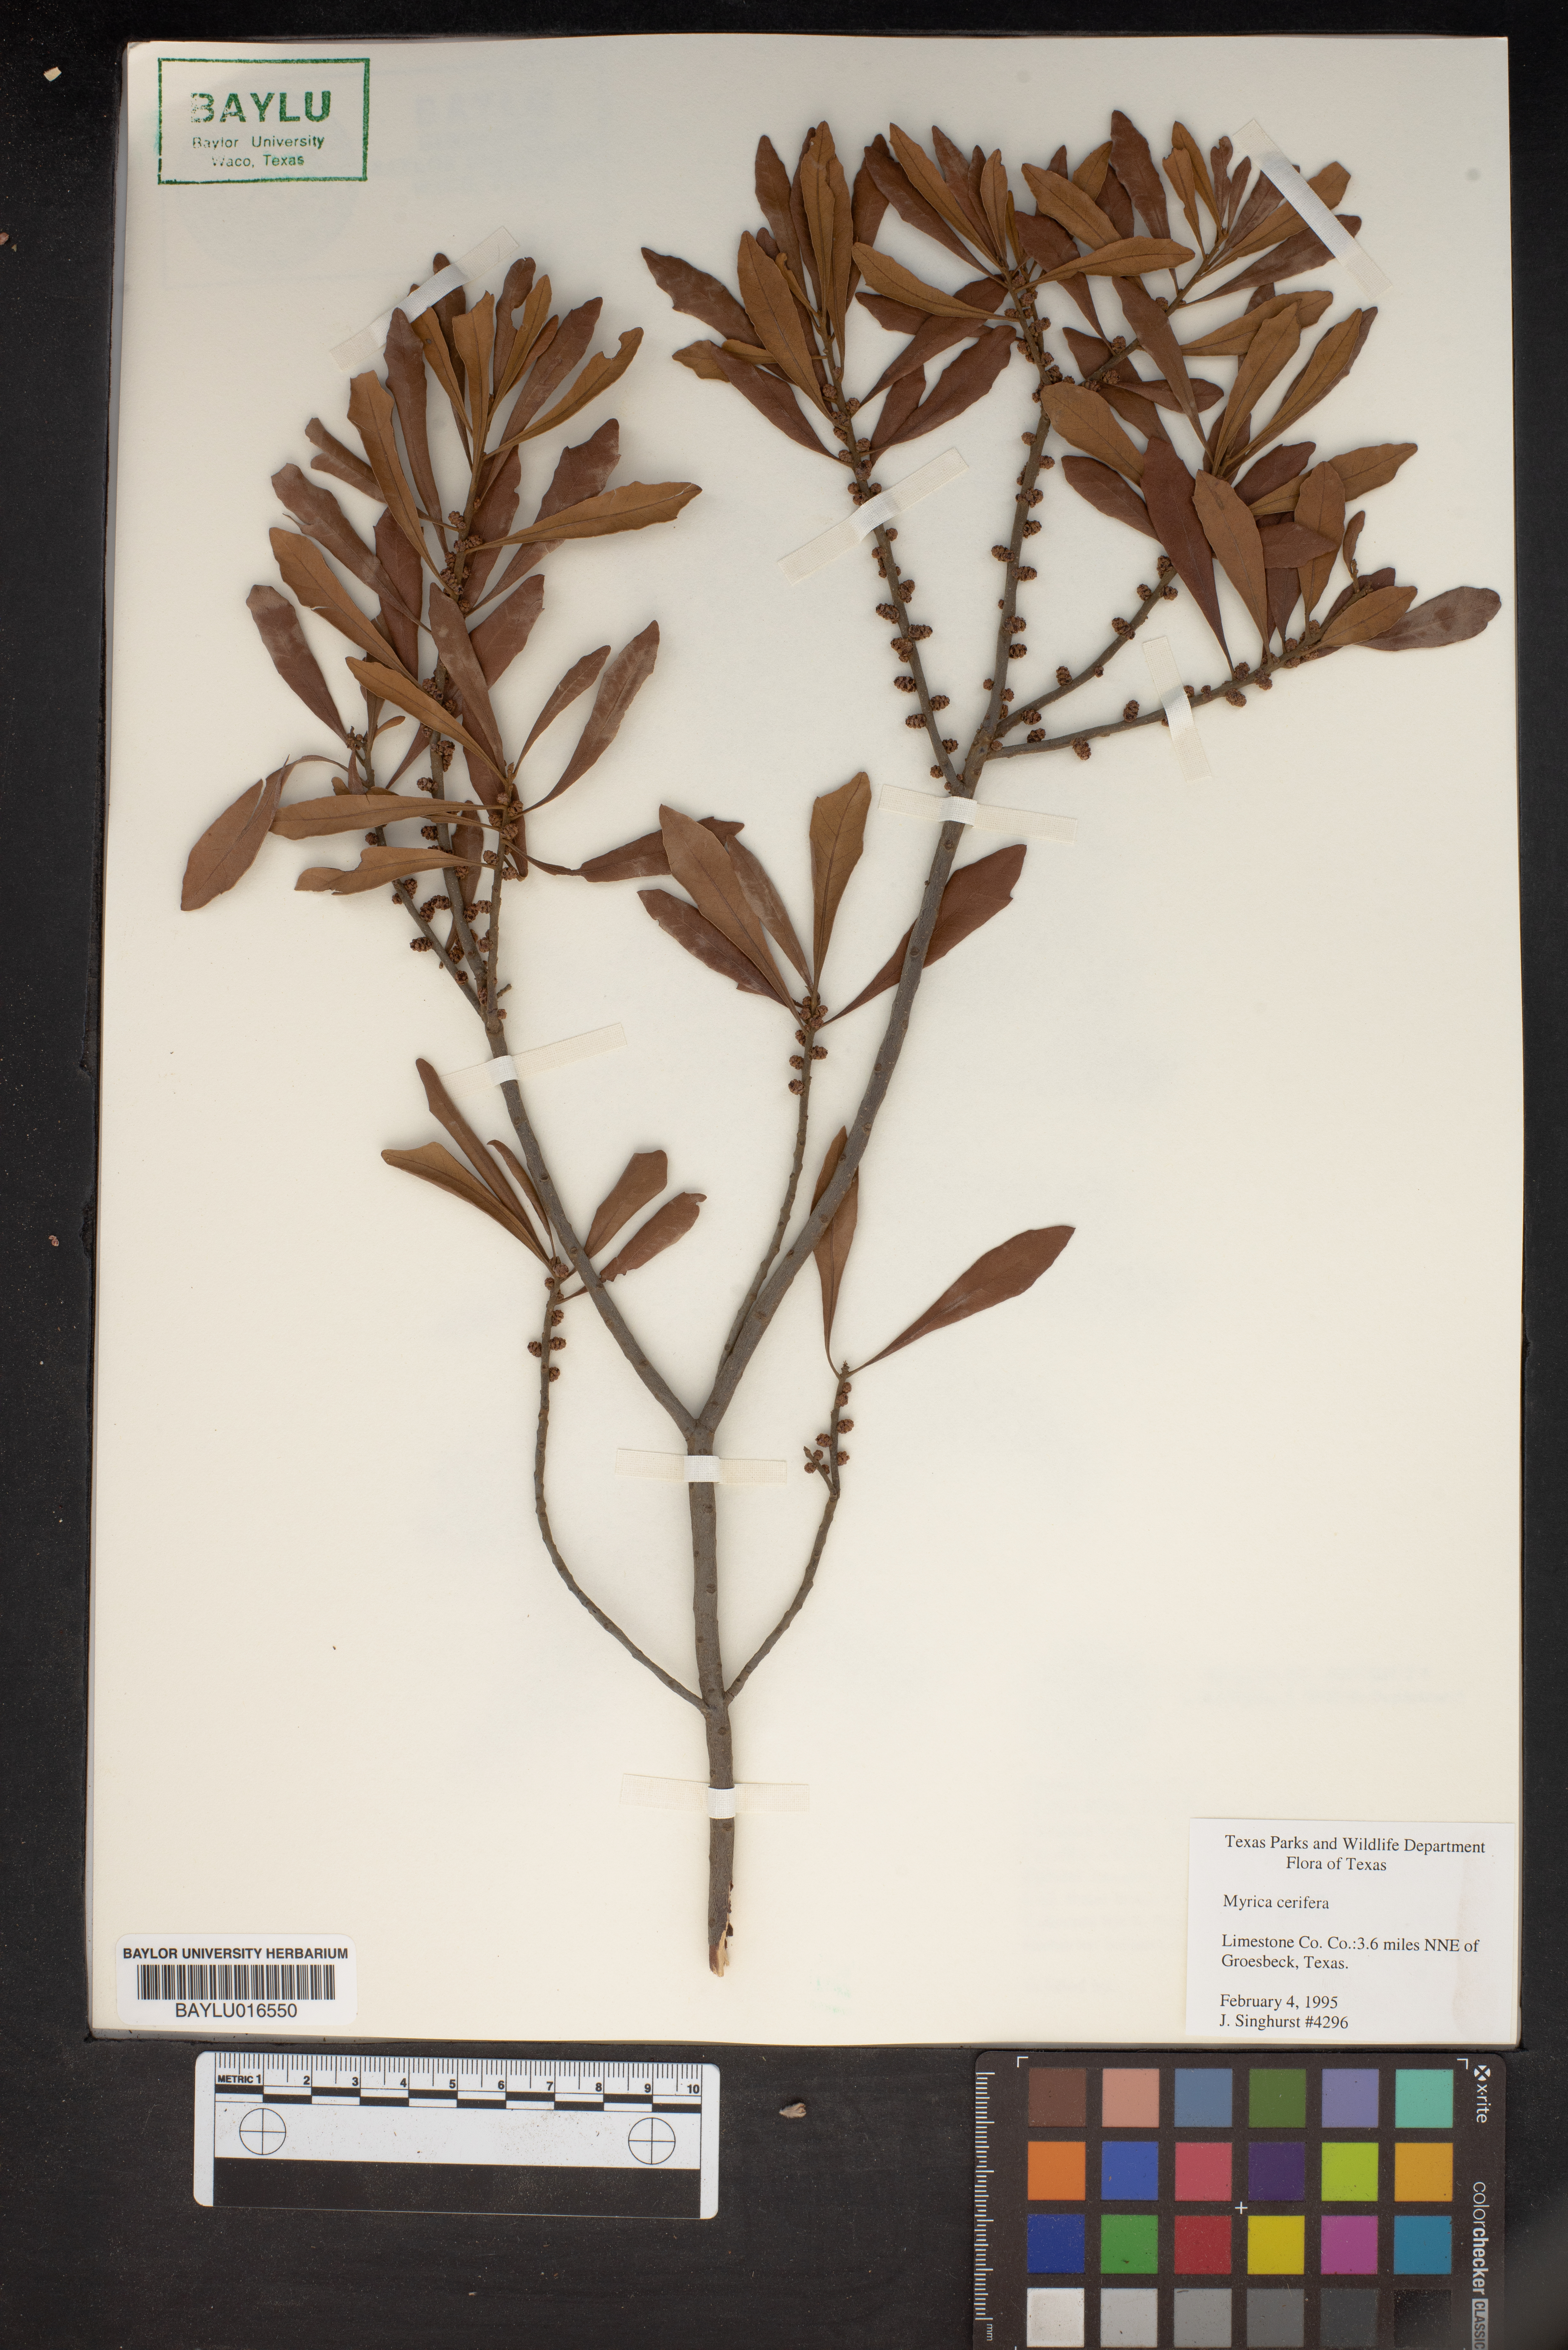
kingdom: Plantae
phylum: Tracheophyta
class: Magnoliopsida
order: Fagales
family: Myricaceae
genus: Morella
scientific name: Morella cerifera
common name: Wax myrtle
